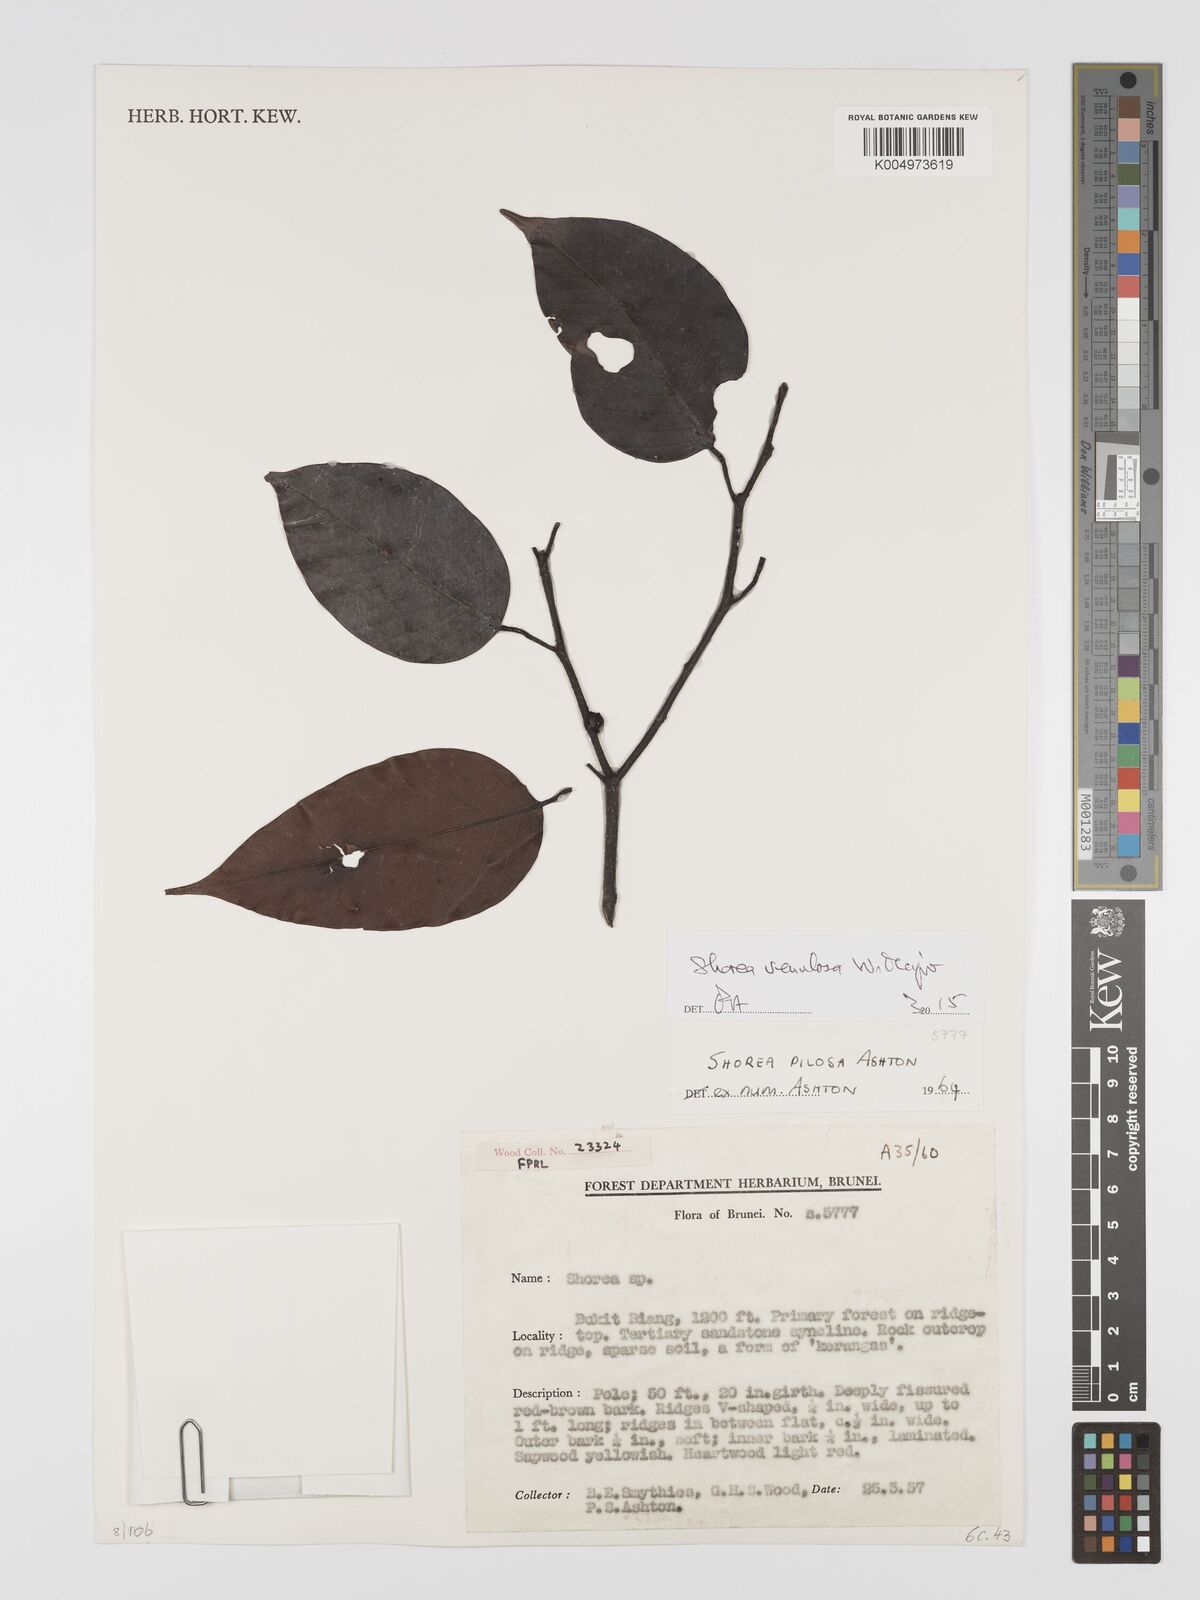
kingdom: Plantae
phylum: Tracheophyta
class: Magnoliopsida
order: Malvales
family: Dipterocarpaceae
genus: Shorea
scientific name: Shorea venulosa
